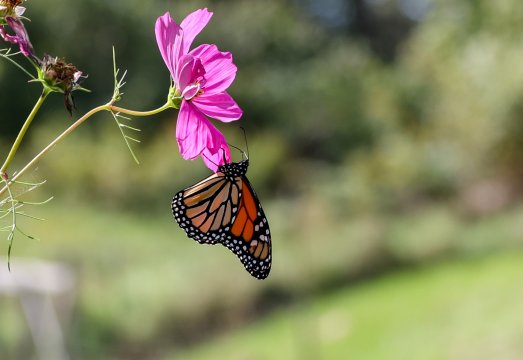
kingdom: Animalia
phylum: Arthropoda
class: Insecta
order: Lepidoptera
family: Nymphalidae
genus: Danaus
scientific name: Danaus plexippus
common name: Monarch
